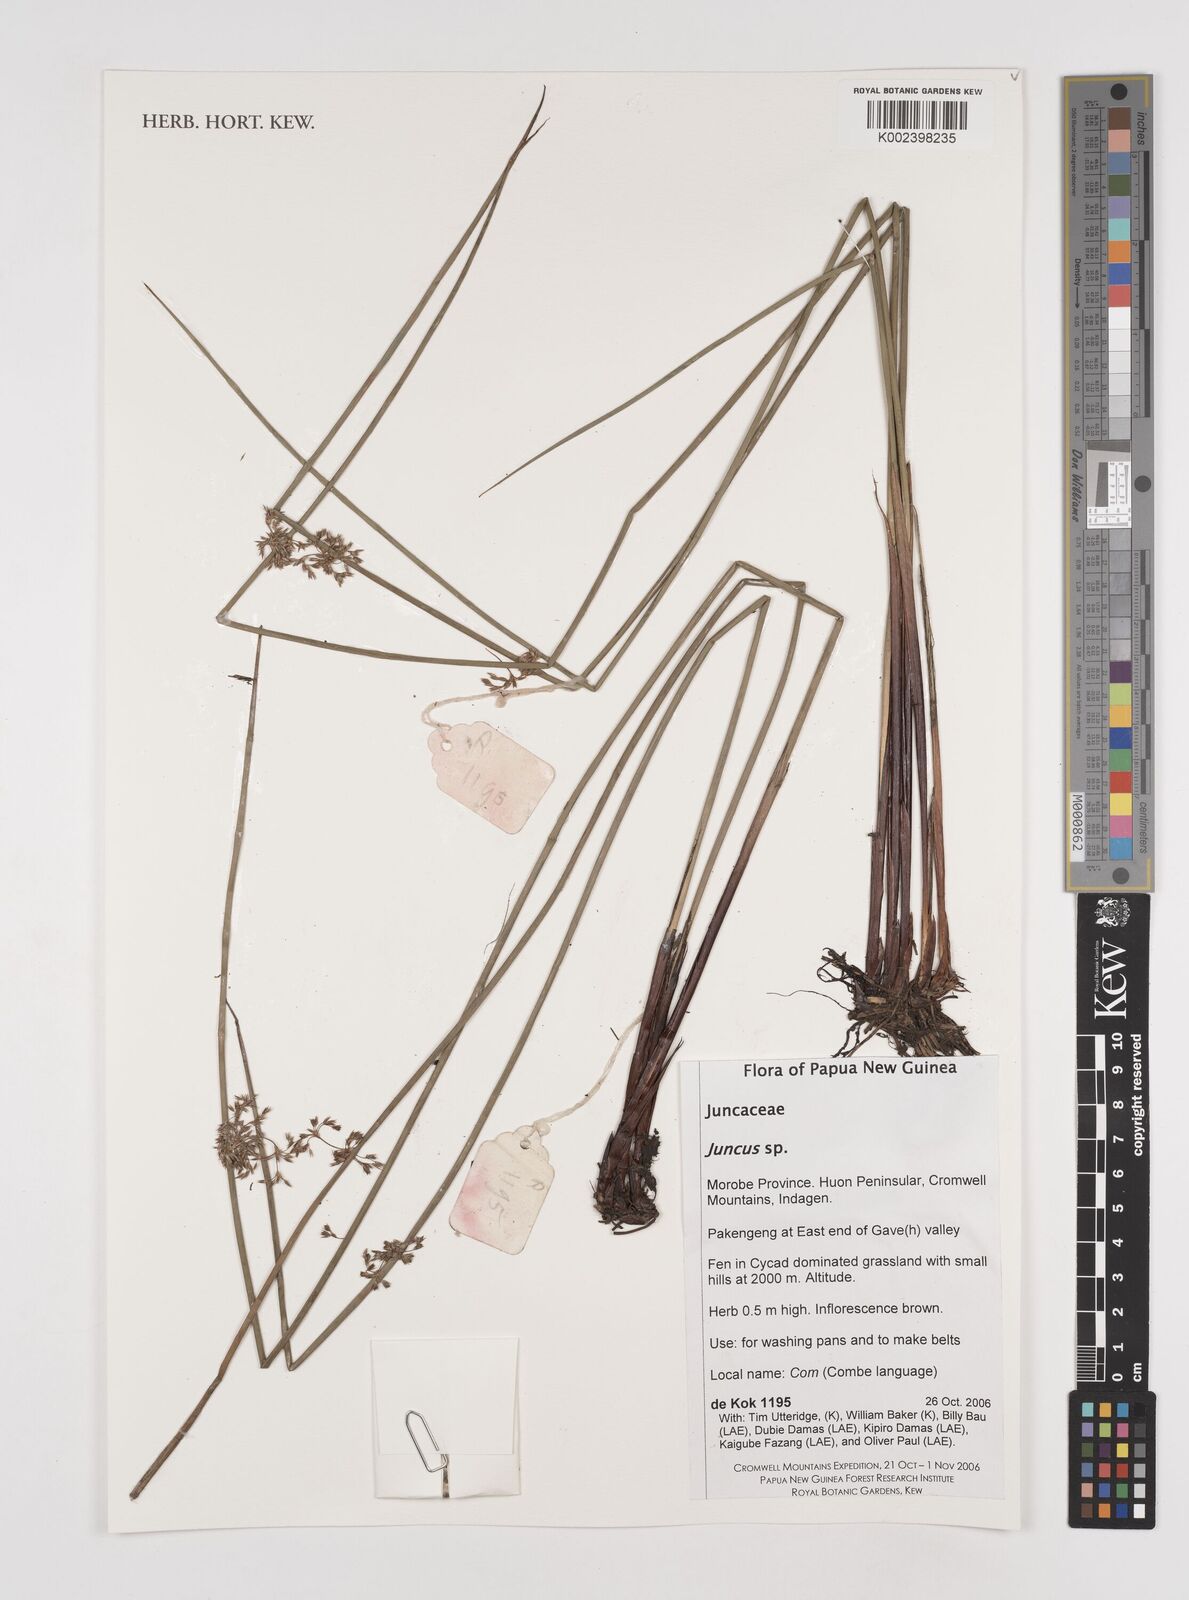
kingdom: Plantae
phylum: Tracheophyta
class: Liliopsida
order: Poales
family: Juncaceae
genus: Juncus
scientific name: Juncus
